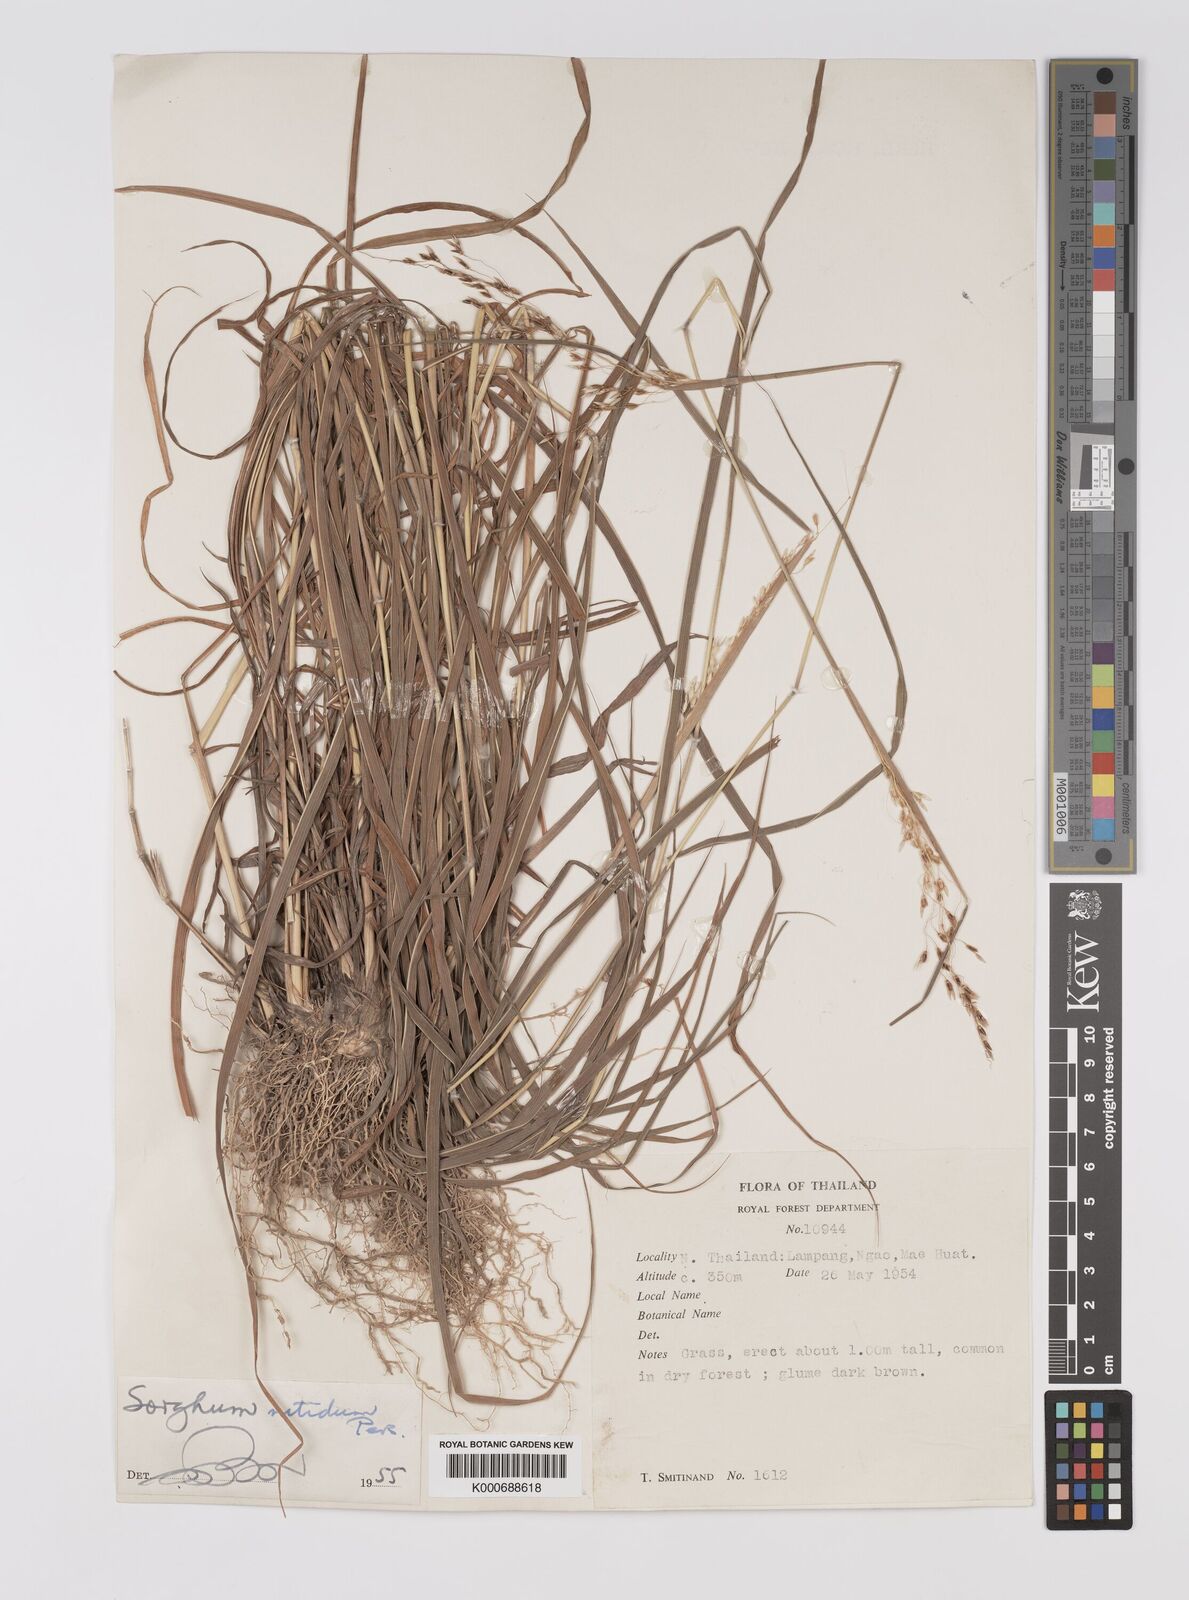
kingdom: Plantae
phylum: Tracheophyta
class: Liliopsida
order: Poales
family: Poaceae
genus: Sorghum
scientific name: Sorghum nitidum
